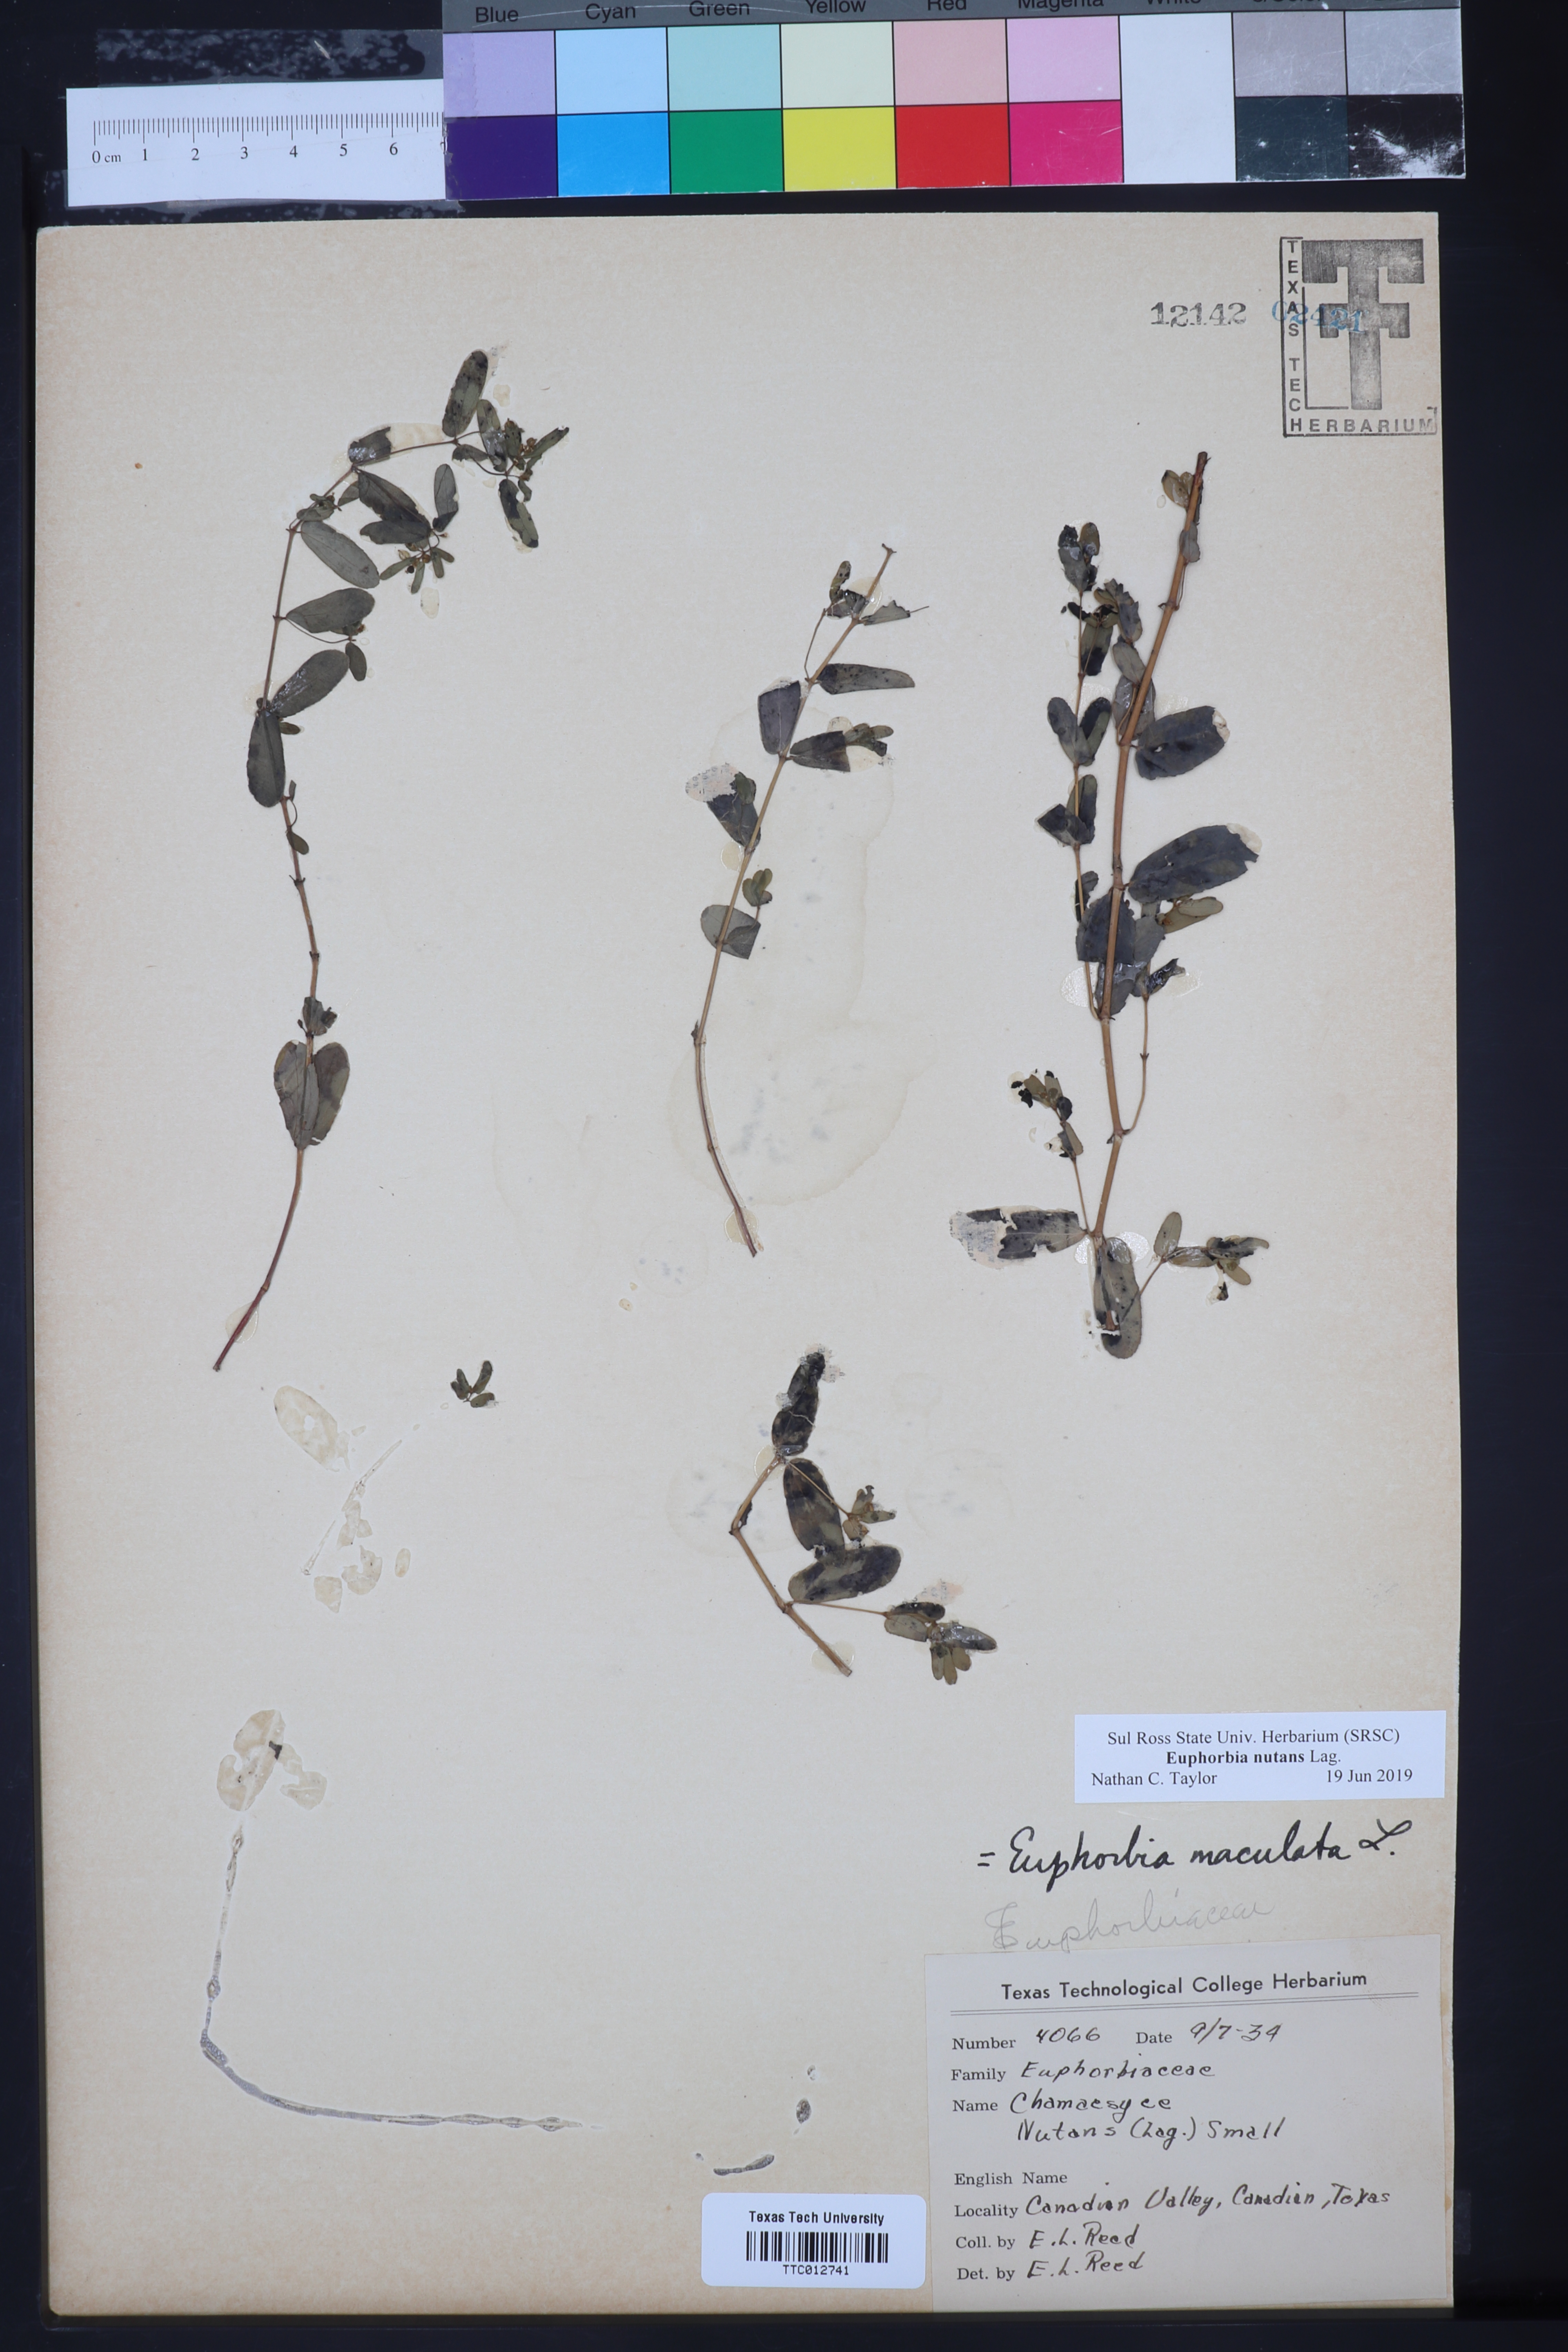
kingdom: Plantae
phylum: Tracheophyta
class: Magnoliopsida
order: Malpighiales
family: Euphorbiaceae
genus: Euphorbia
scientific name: Euphorbia nutans
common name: Eyebane
